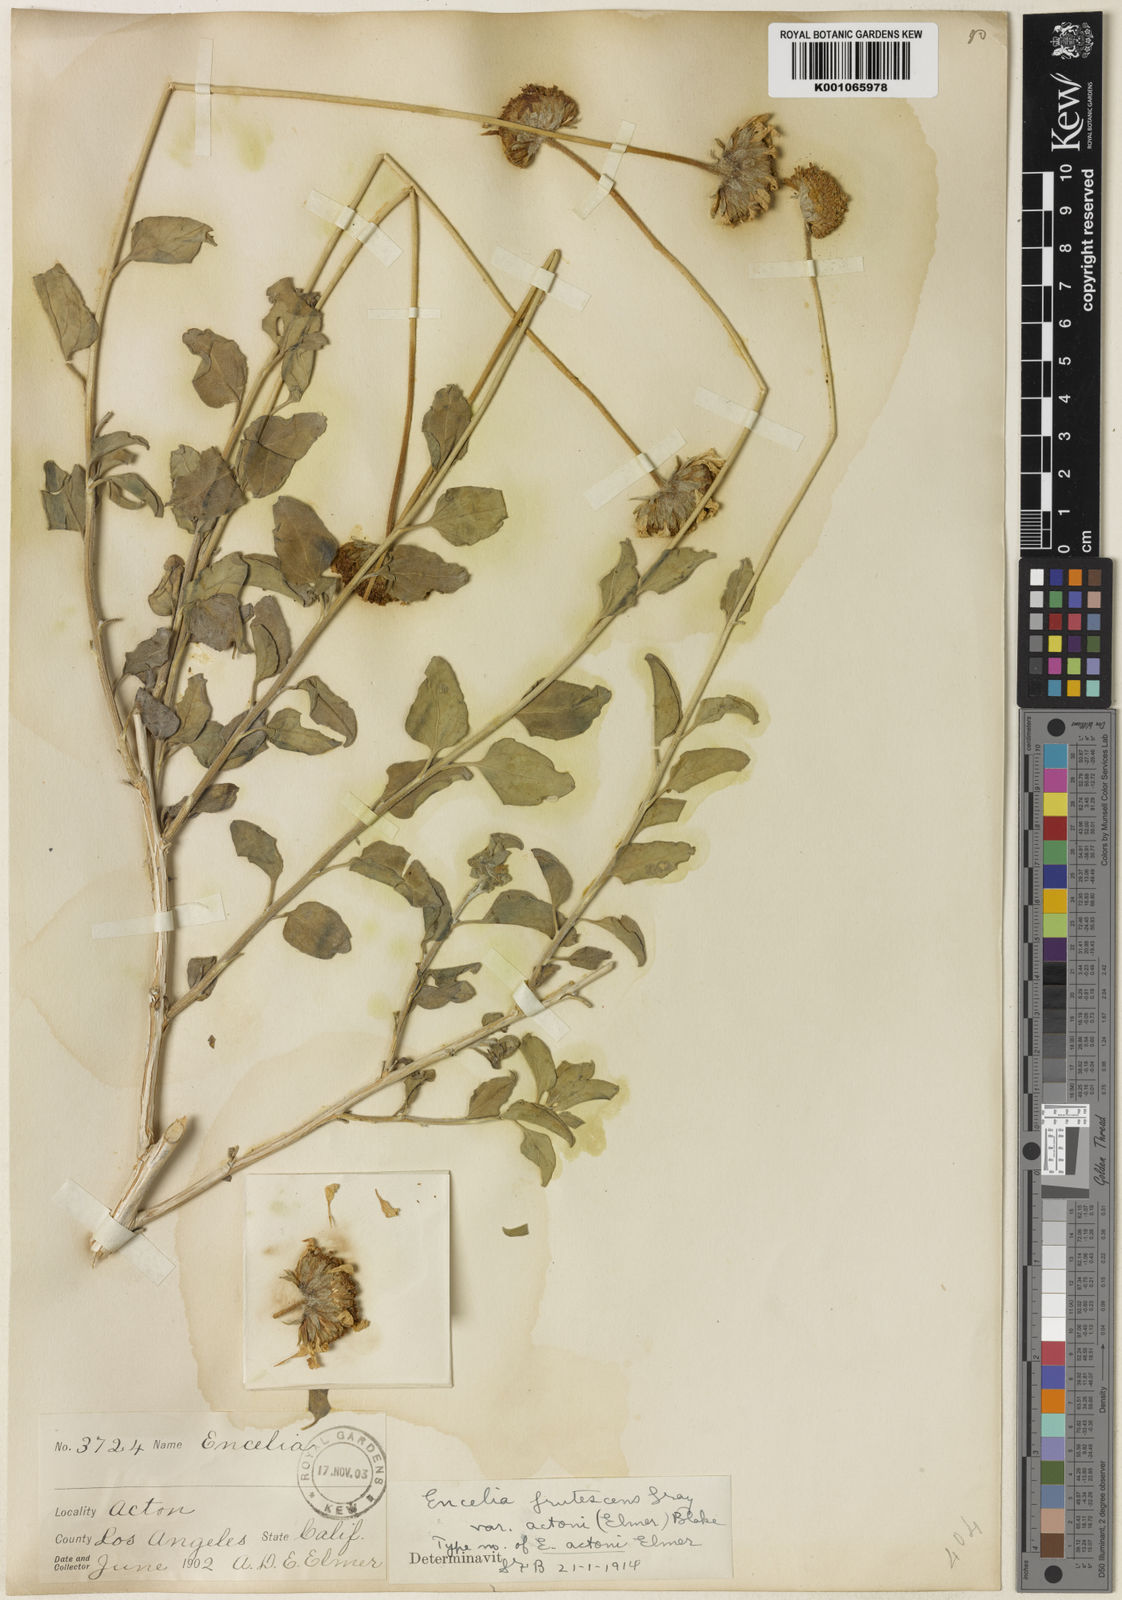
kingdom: Plantae
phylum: Tracheophyta
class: Magnoliopsida
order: Asterales
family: Asteraceae
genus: Encelia
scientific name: Encelia virginensis
